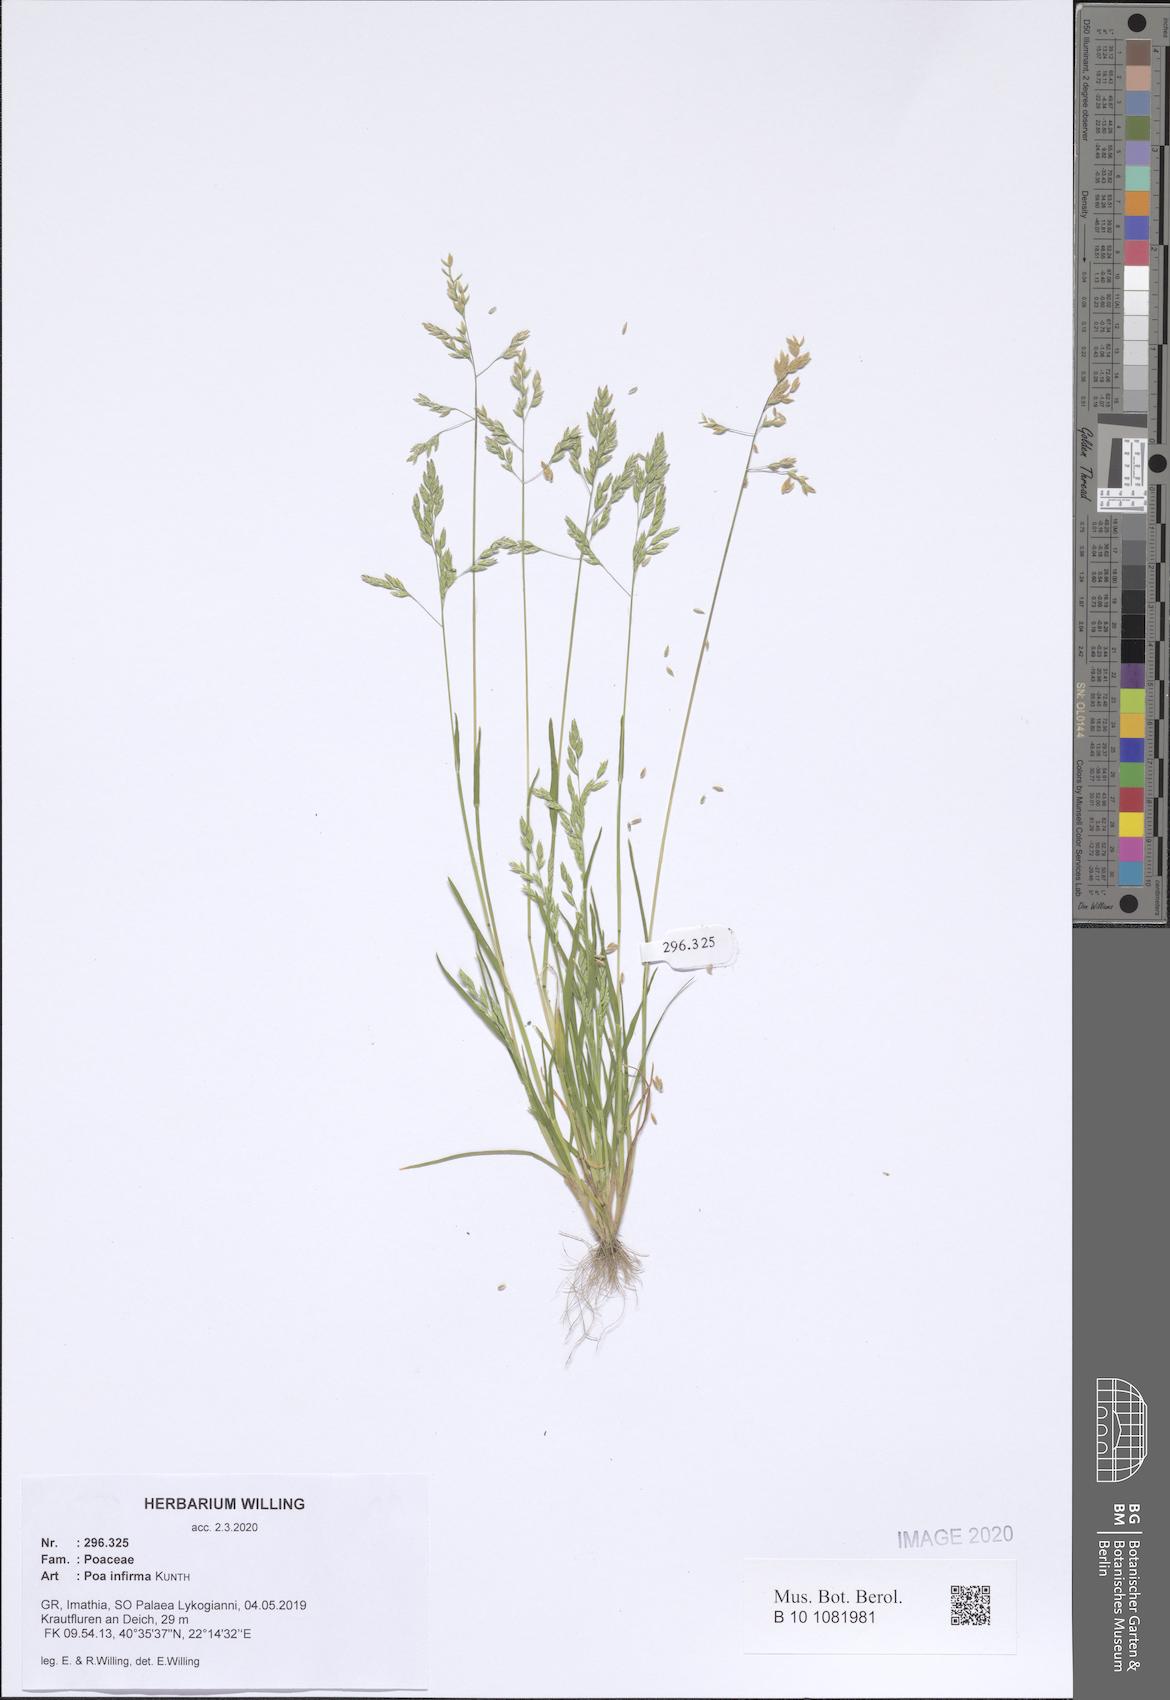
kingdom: Plantae
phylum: Tracheophyta
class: Liliopsida
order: Poales
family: Poaceae
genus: Poa
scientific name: Poa infirma
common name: Weak bluegrass
